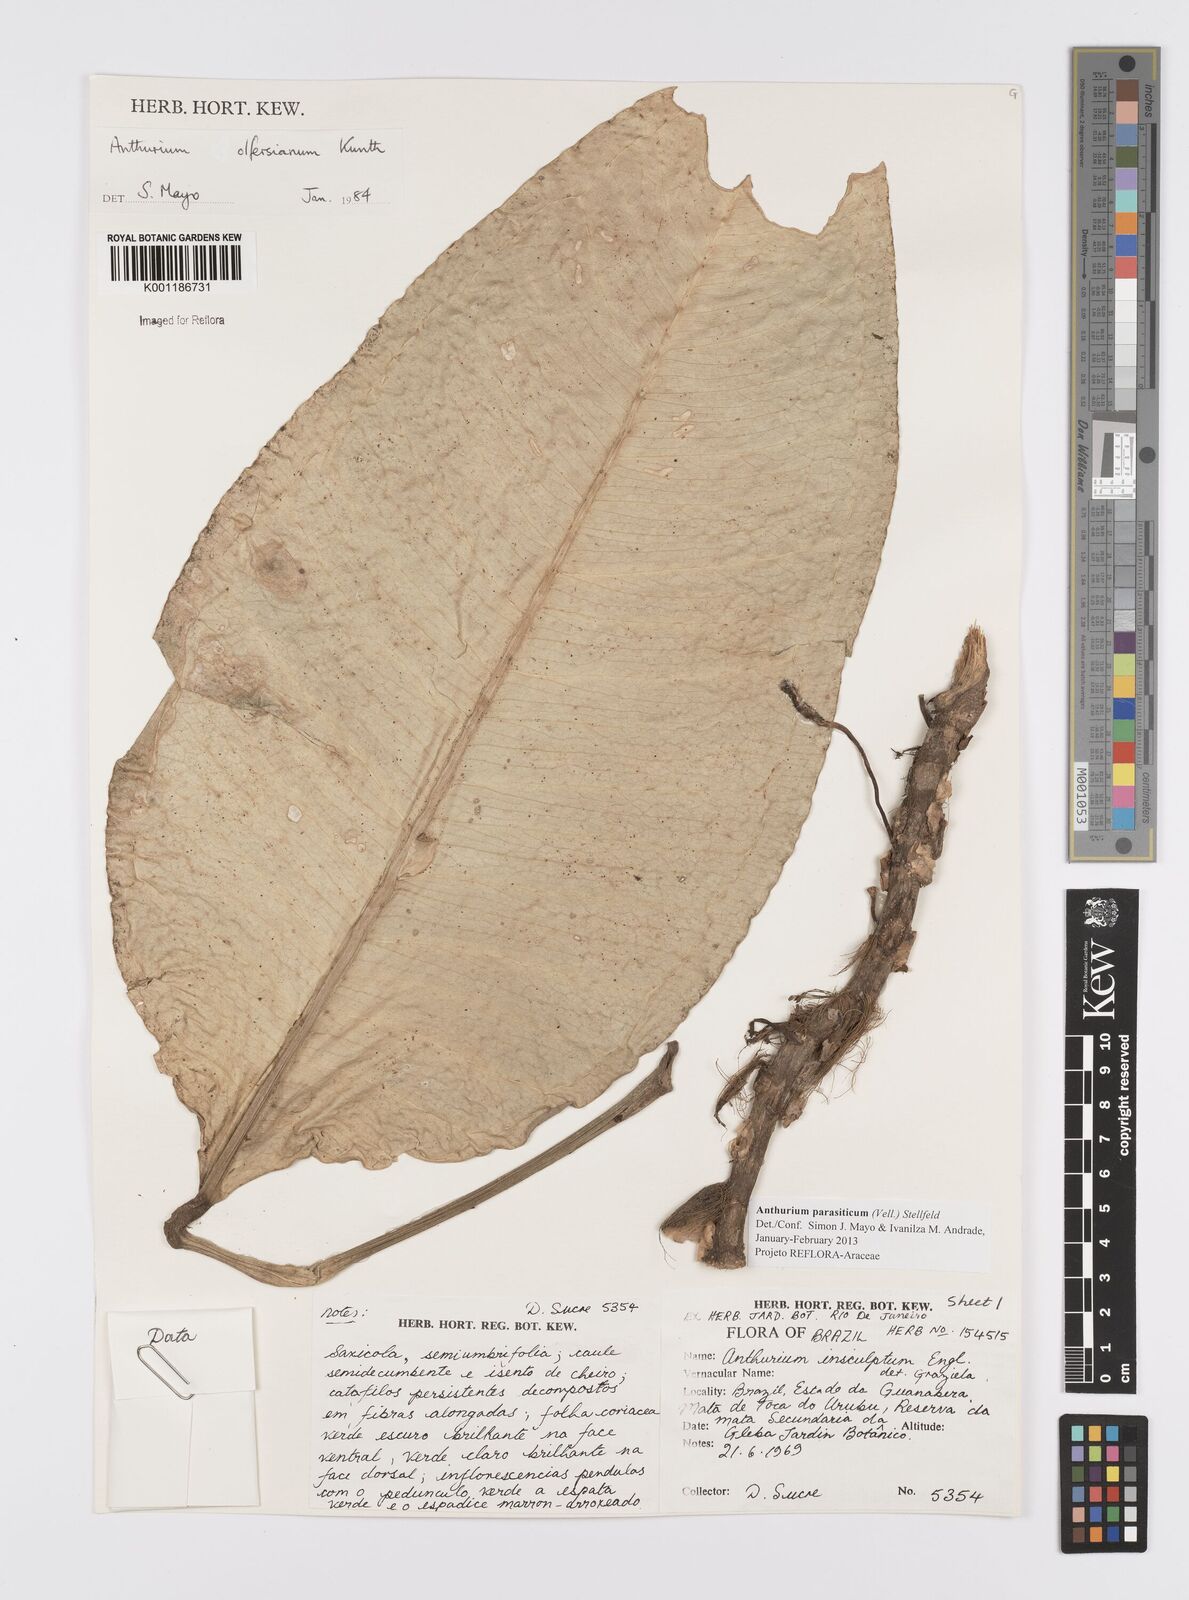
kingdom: Plantae
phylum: Tracheophyta
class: Liliopsida
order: Alismatales
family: Araceae
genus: Anthurium
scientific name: Anthurium parasiticum
